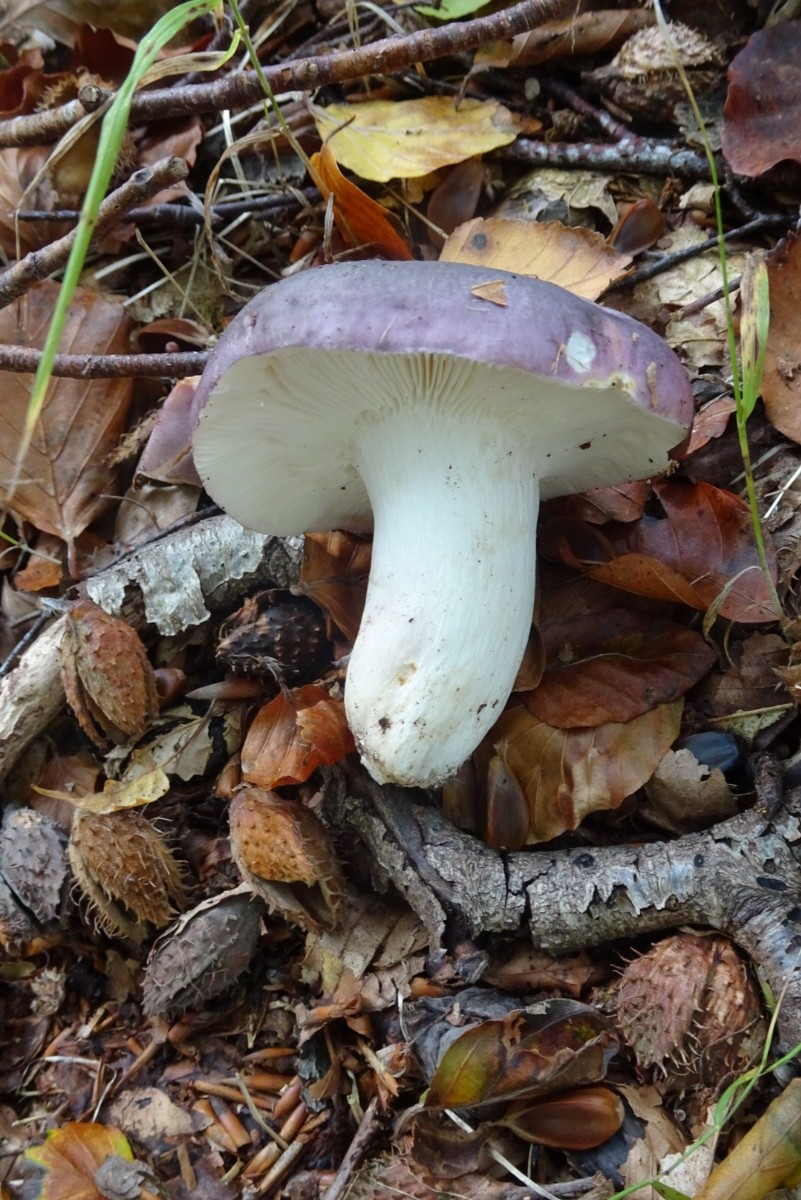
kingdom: Fungi
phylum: Basidiomycota
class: Agaricomycetes
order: Russulales
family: Russulaceae
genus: Russula
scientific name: Russula cyanoxantha
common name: broget skørhat
